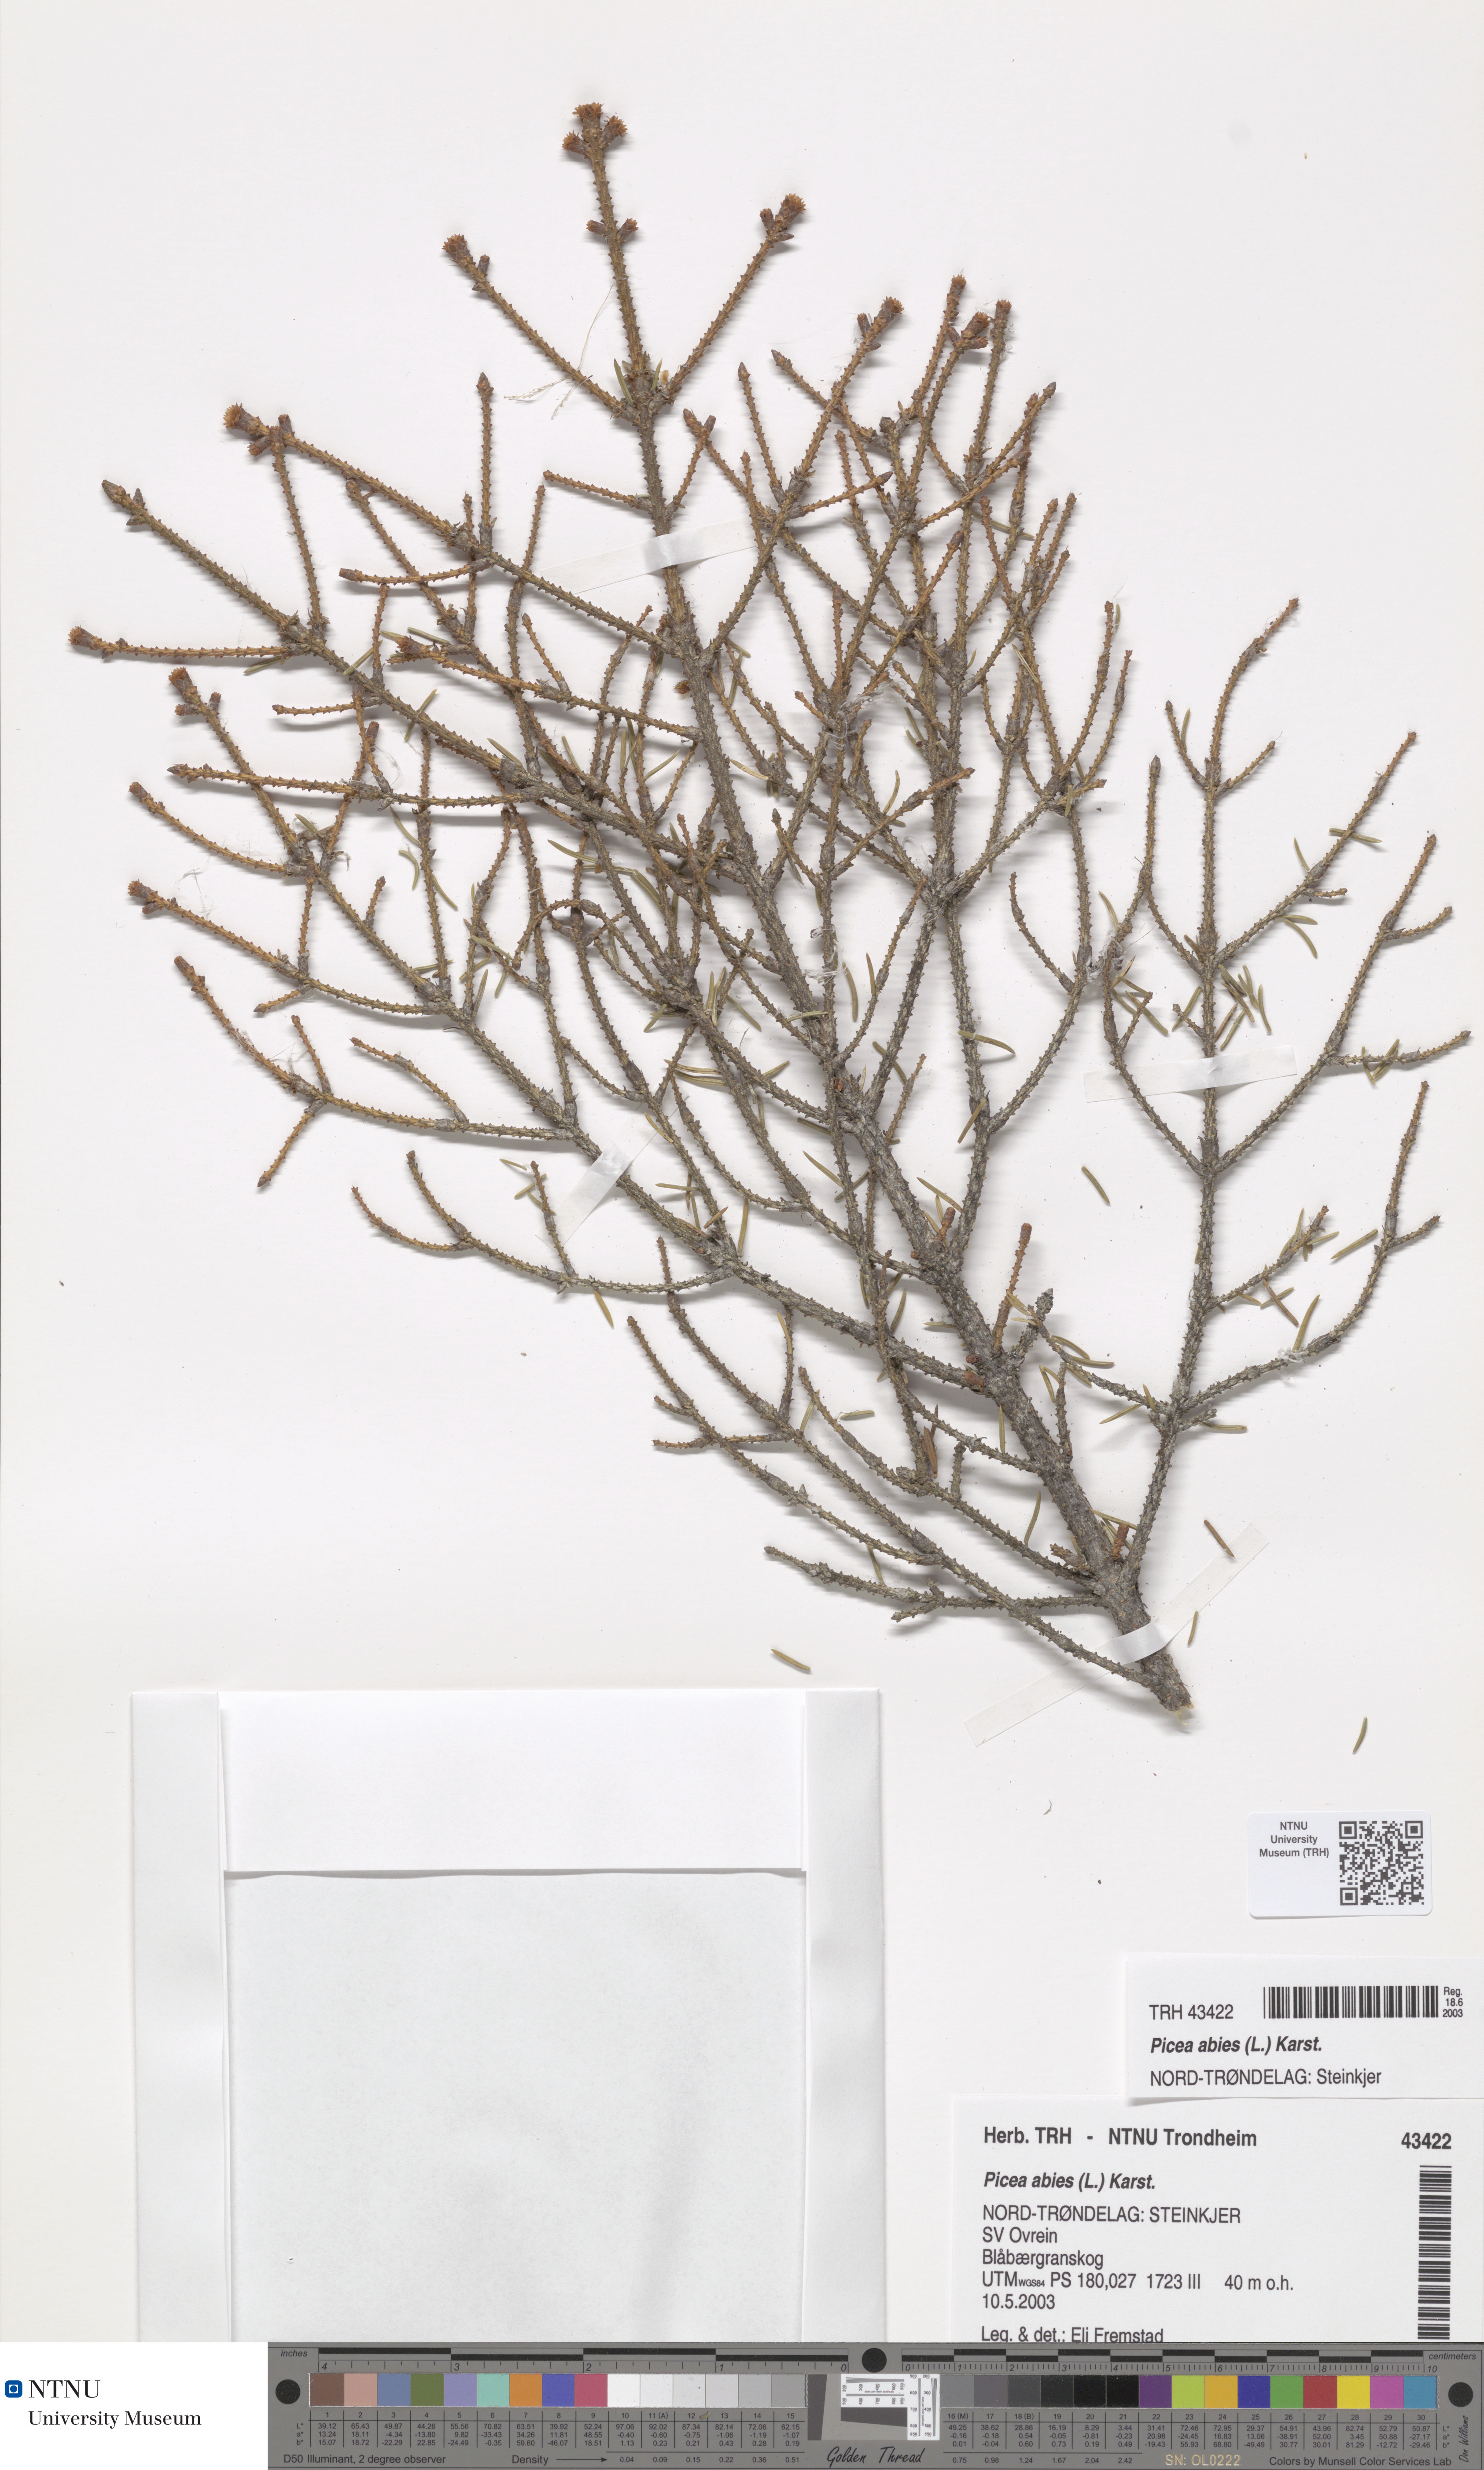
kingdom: Plantae
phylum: Tracheophyta
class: Pinopsida
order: Pinales
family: Pinaceae
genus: Picea
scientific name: Picea abies
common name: Norway spruce
